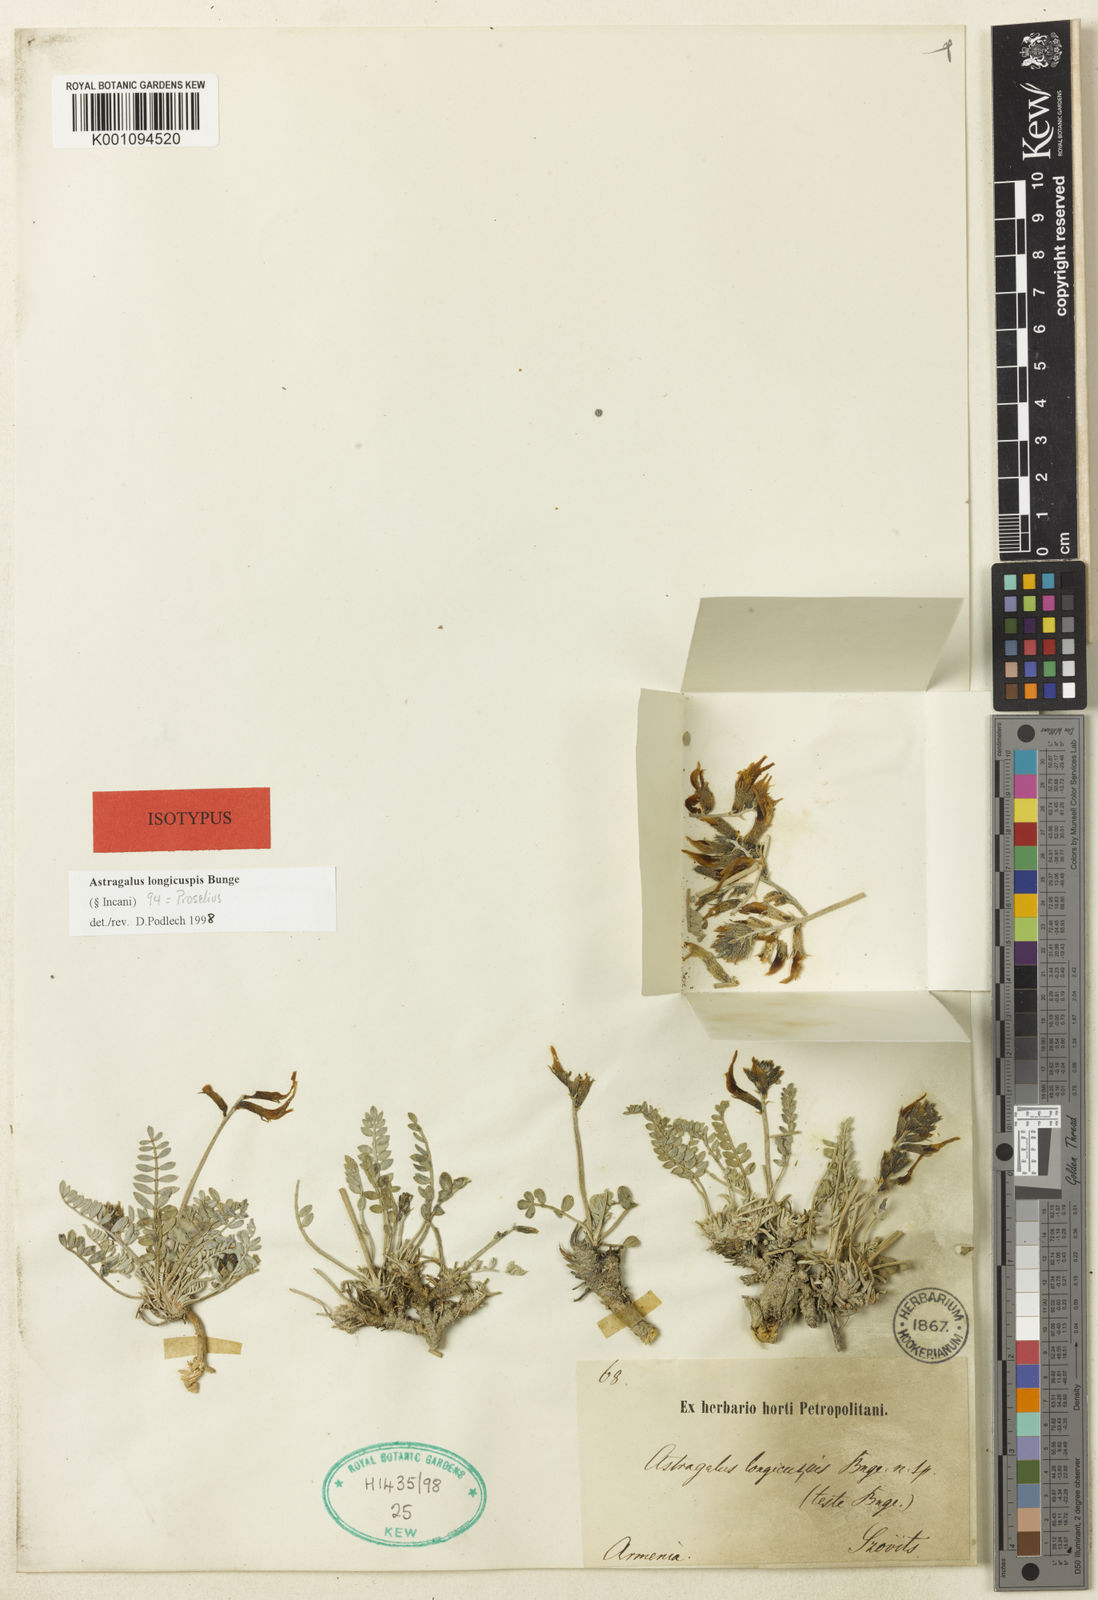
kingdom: Plantae
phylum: Tracheophyta
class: Magnoliopsida
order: Fabales
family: Fabaceae
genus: Astragalus
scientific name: Astragalus
